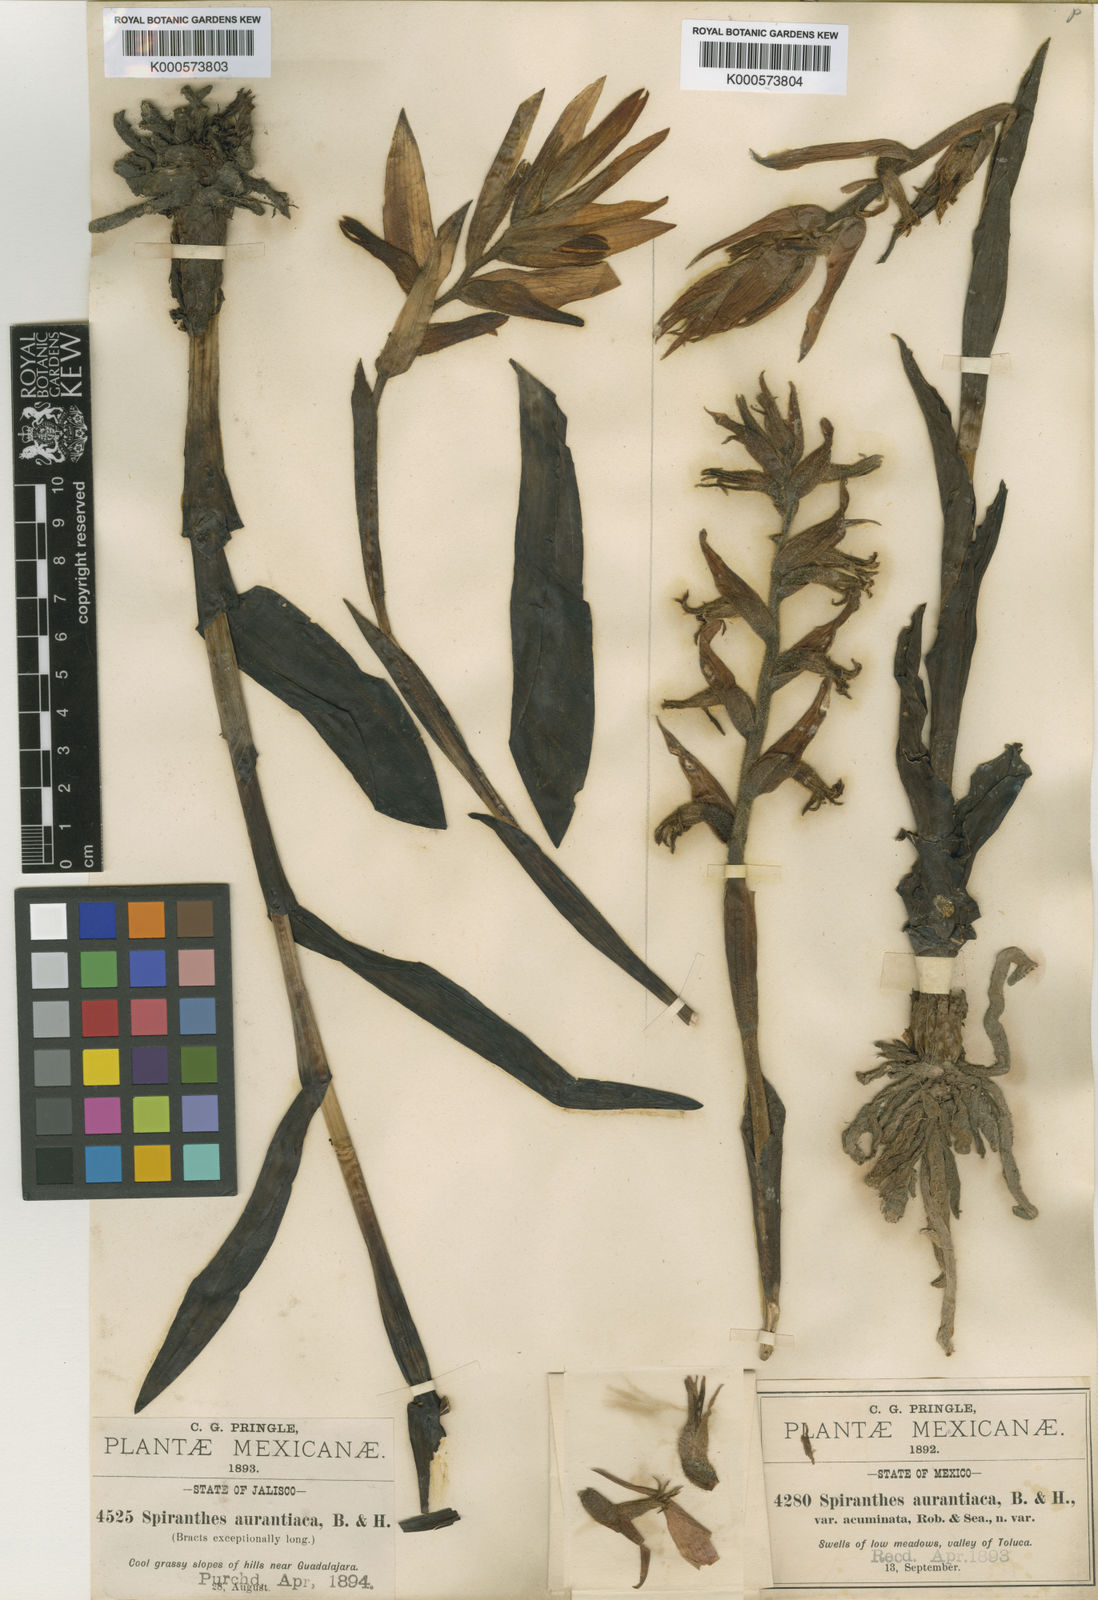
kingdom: Plantae
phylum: Tracheophyta
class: Liliopsida
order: Asparagales
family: Orchidaceae
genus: Dichromanthus
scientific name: Dichromanthus aurantiacus
